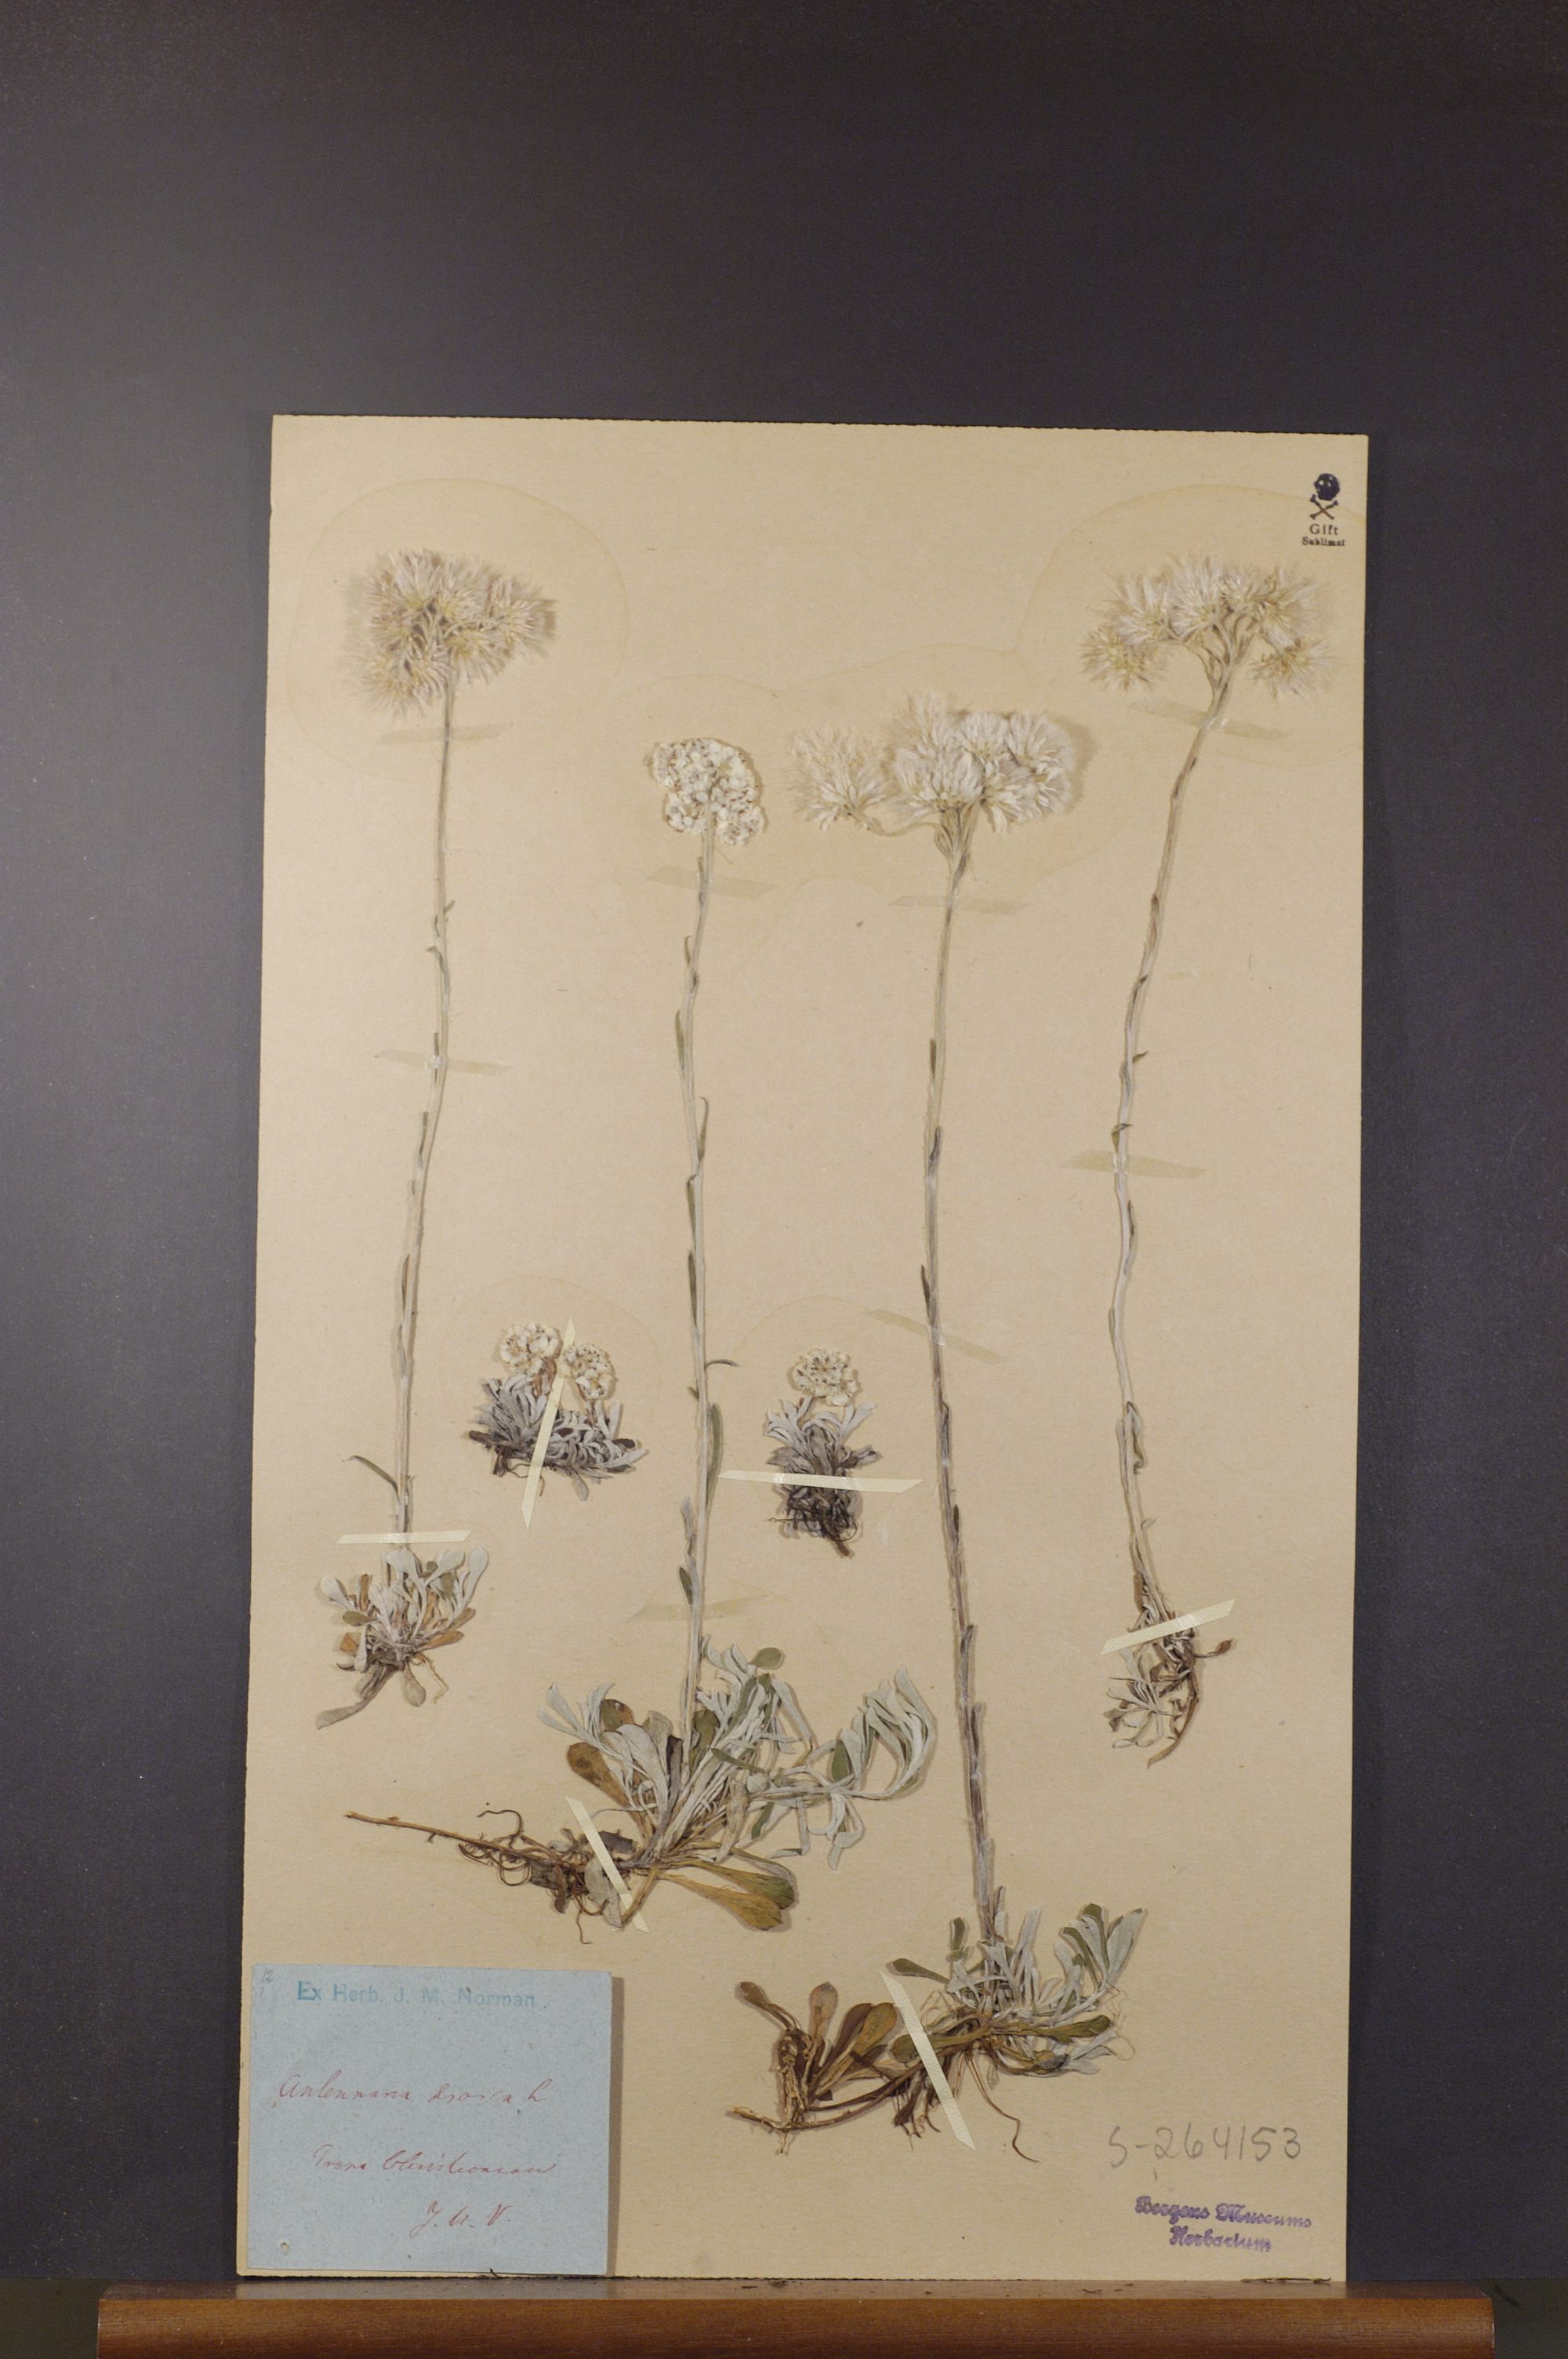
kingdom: Plantae
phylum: Tracheophyta
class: Magnoliopsida
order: Asterales
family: Asteraceae
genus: Antennaria
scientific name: Antennaria dioica
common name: Mountain everlasting
